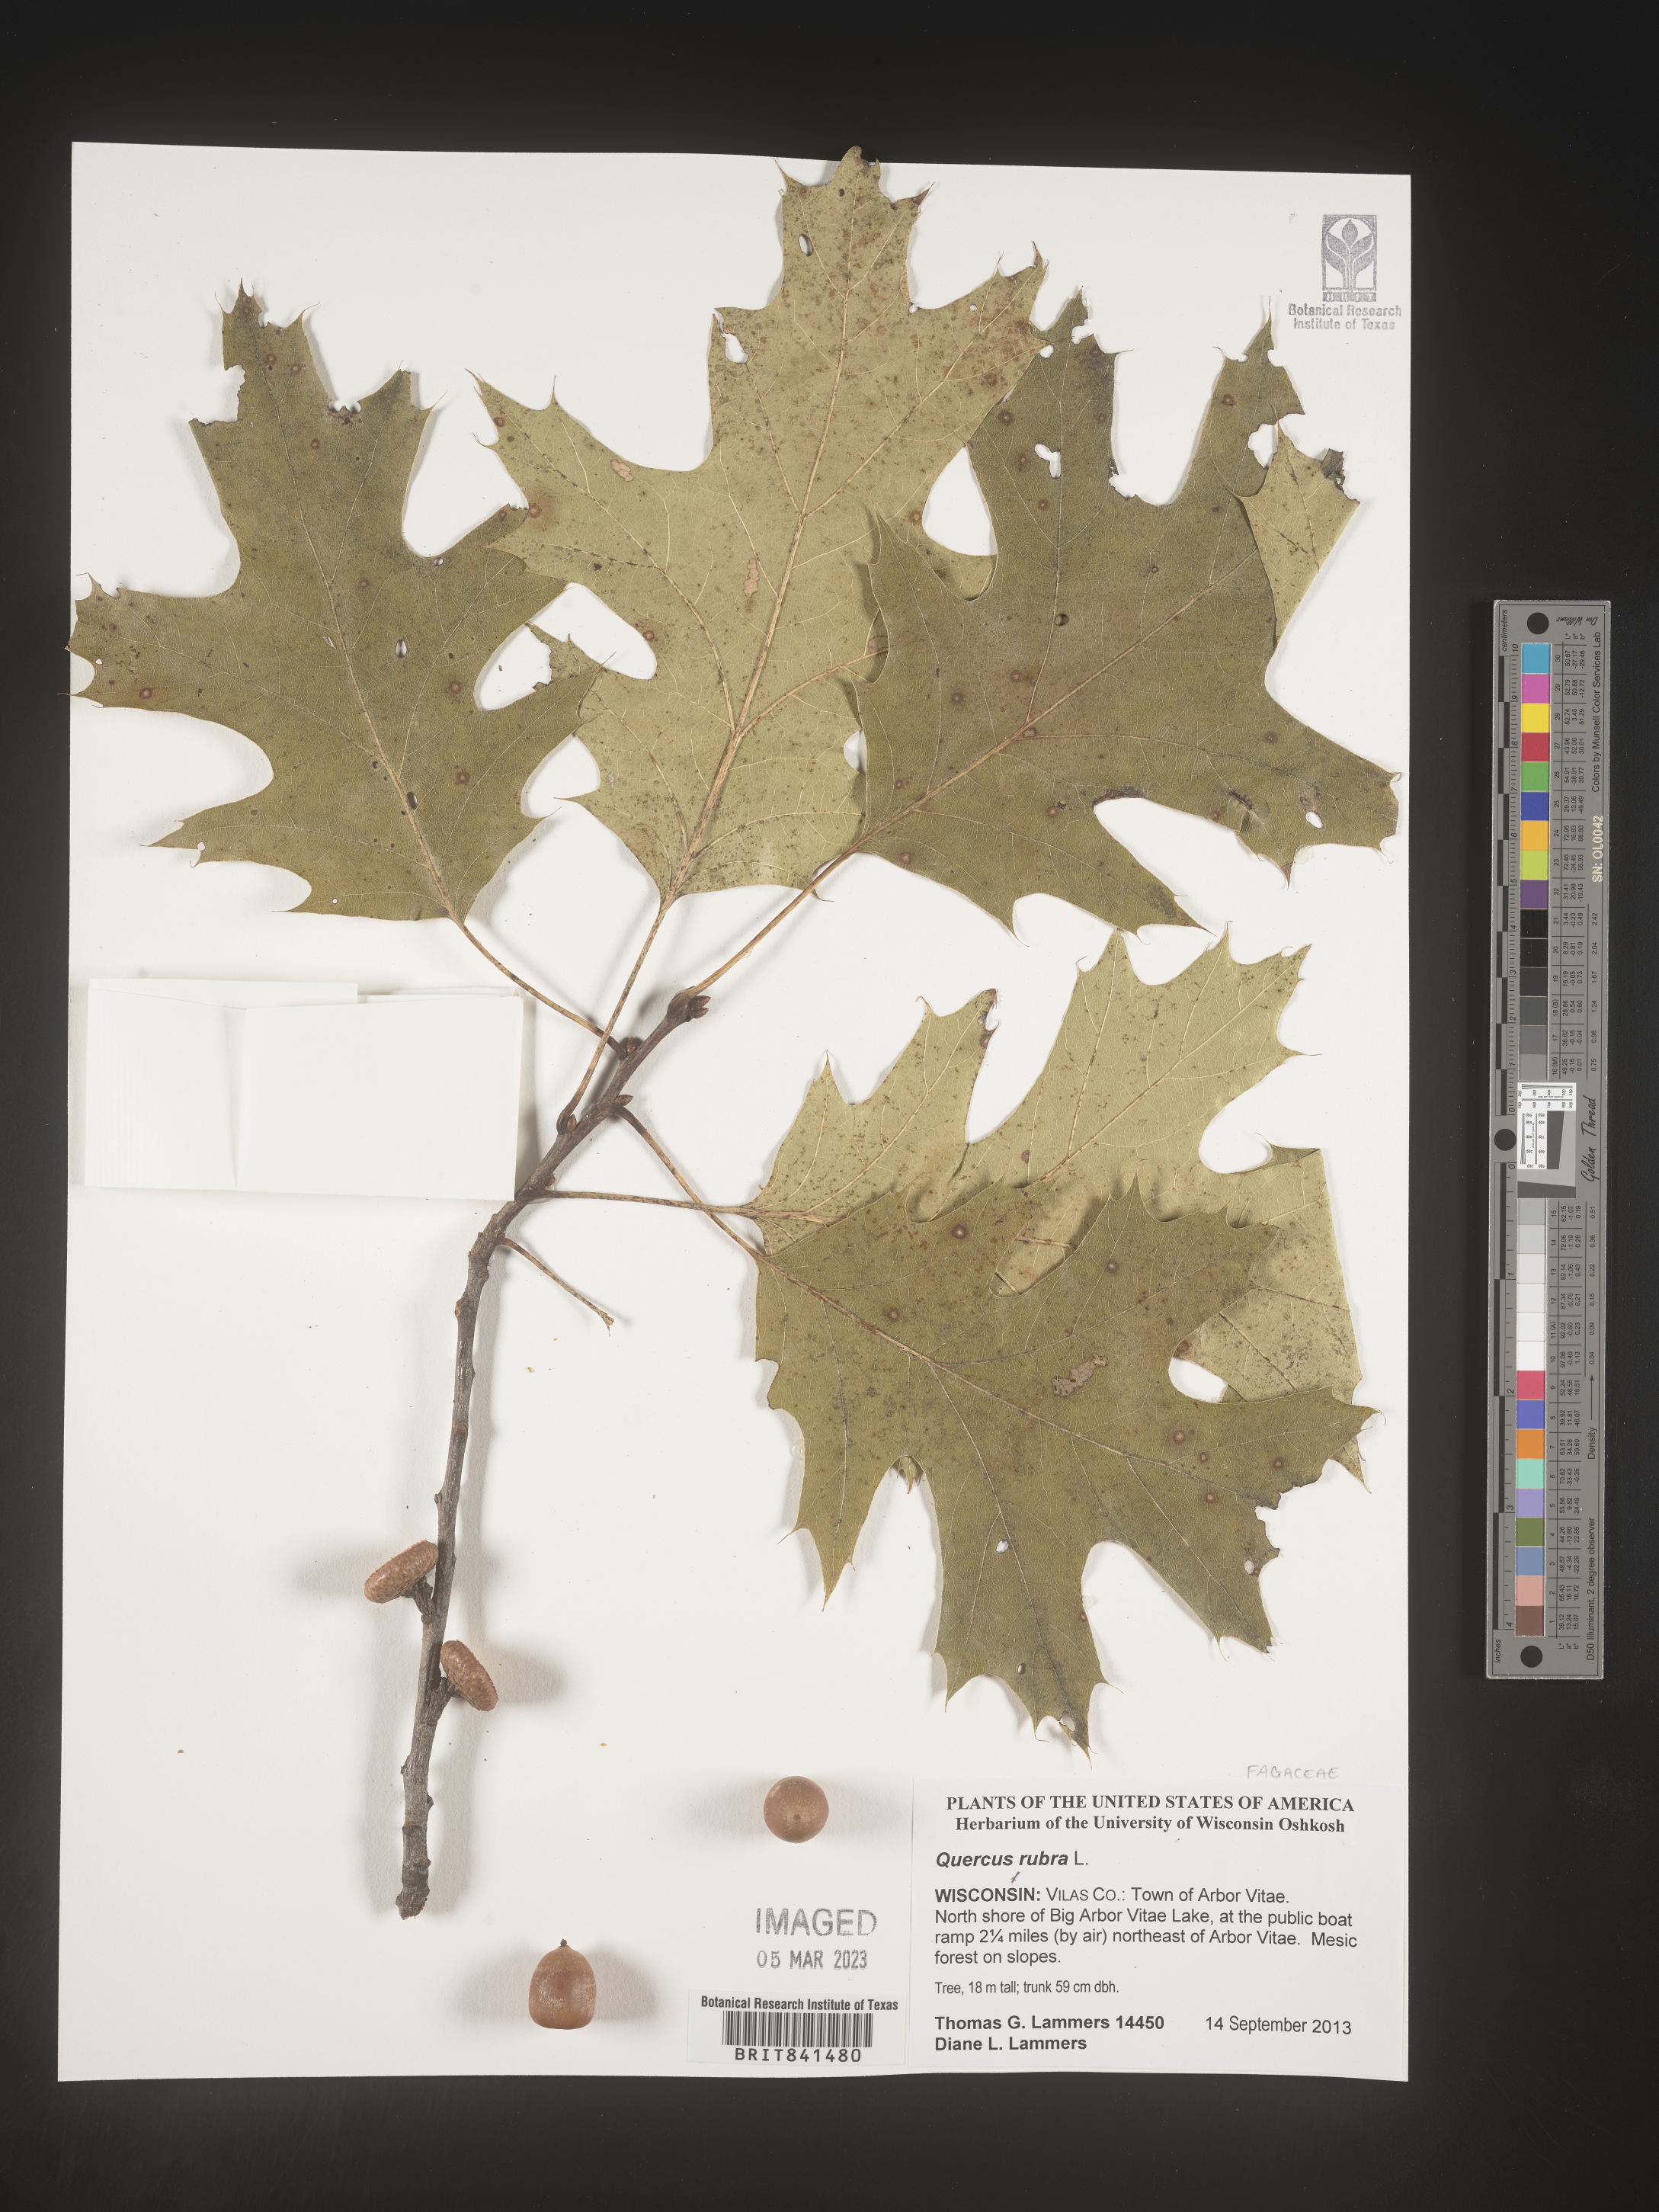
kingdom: Plantae
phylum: Tracheophyta
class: Magnoliopsida
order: Fagales
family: Fagaceae
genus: Quercus
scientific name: Quercus rubra
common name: Red oak
